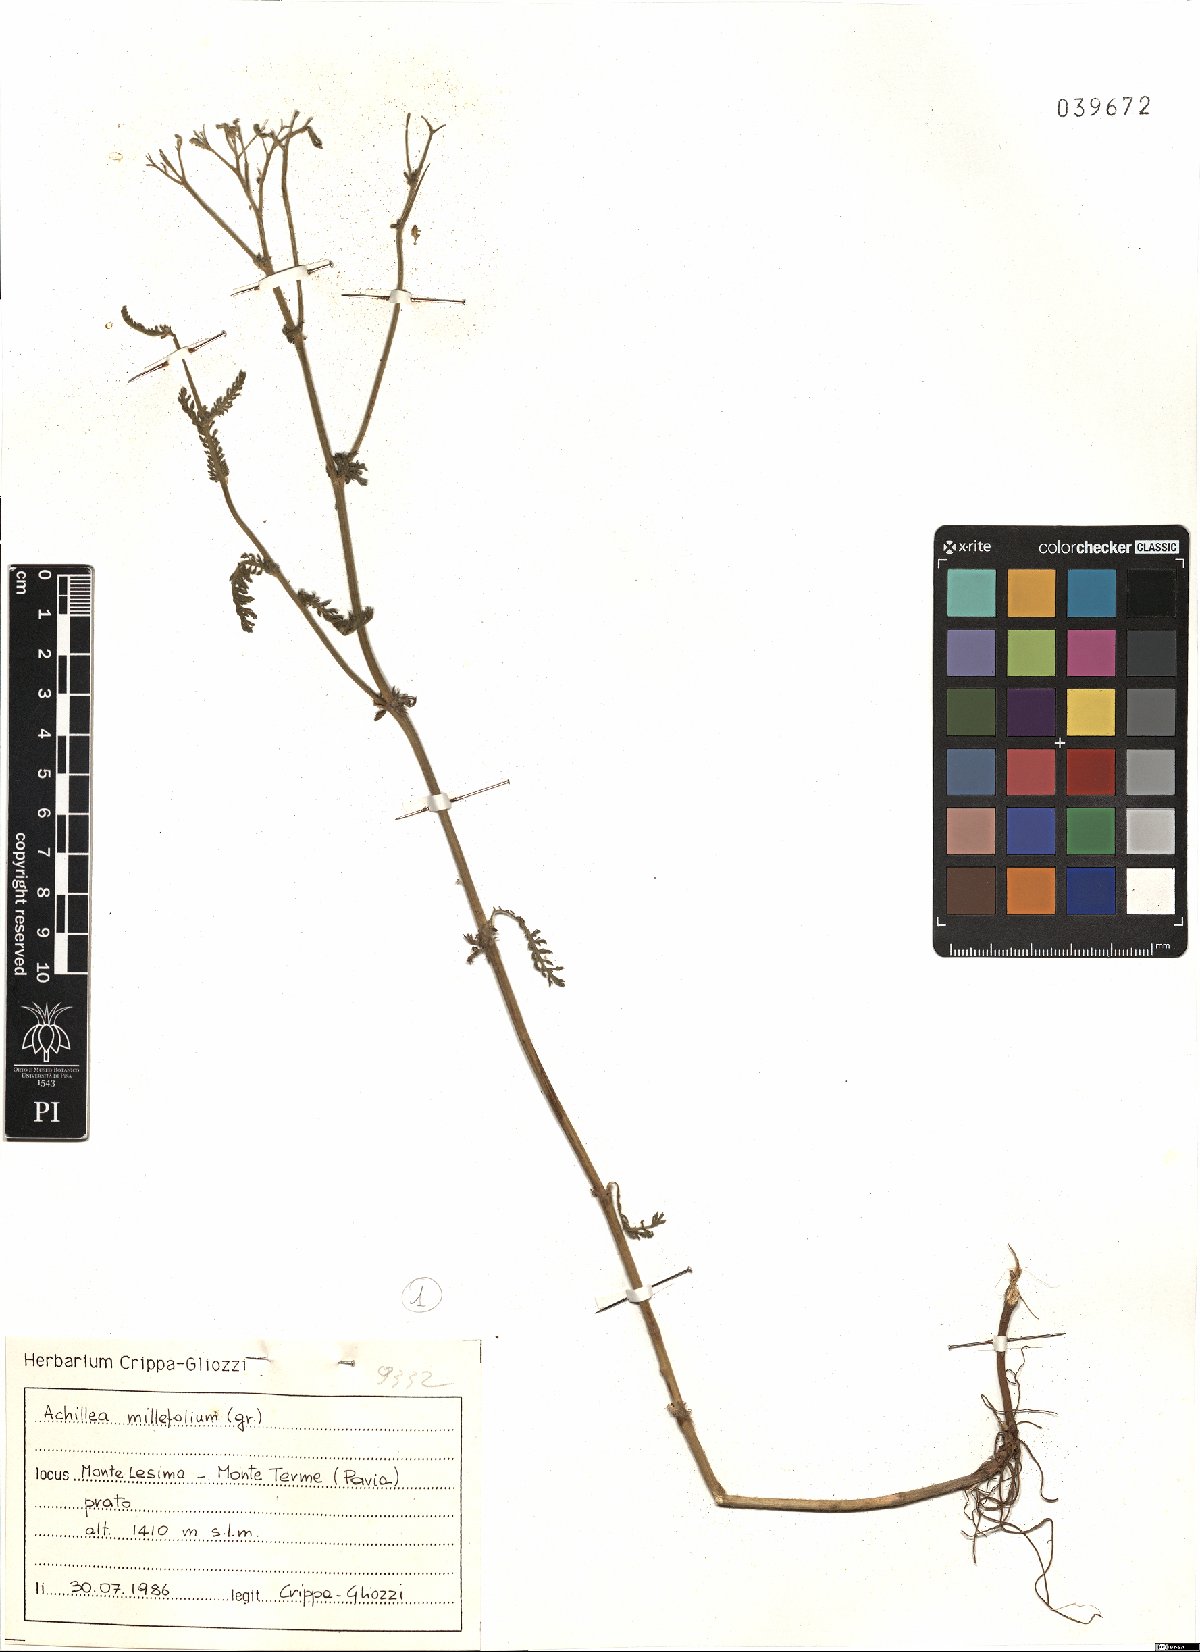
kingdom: Plantae
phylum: Tracheophyta
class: Magnoliopsida
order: Asterales
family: Asteraceae
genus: Achillea
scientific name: Achillea millefolium
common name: Yarrow
